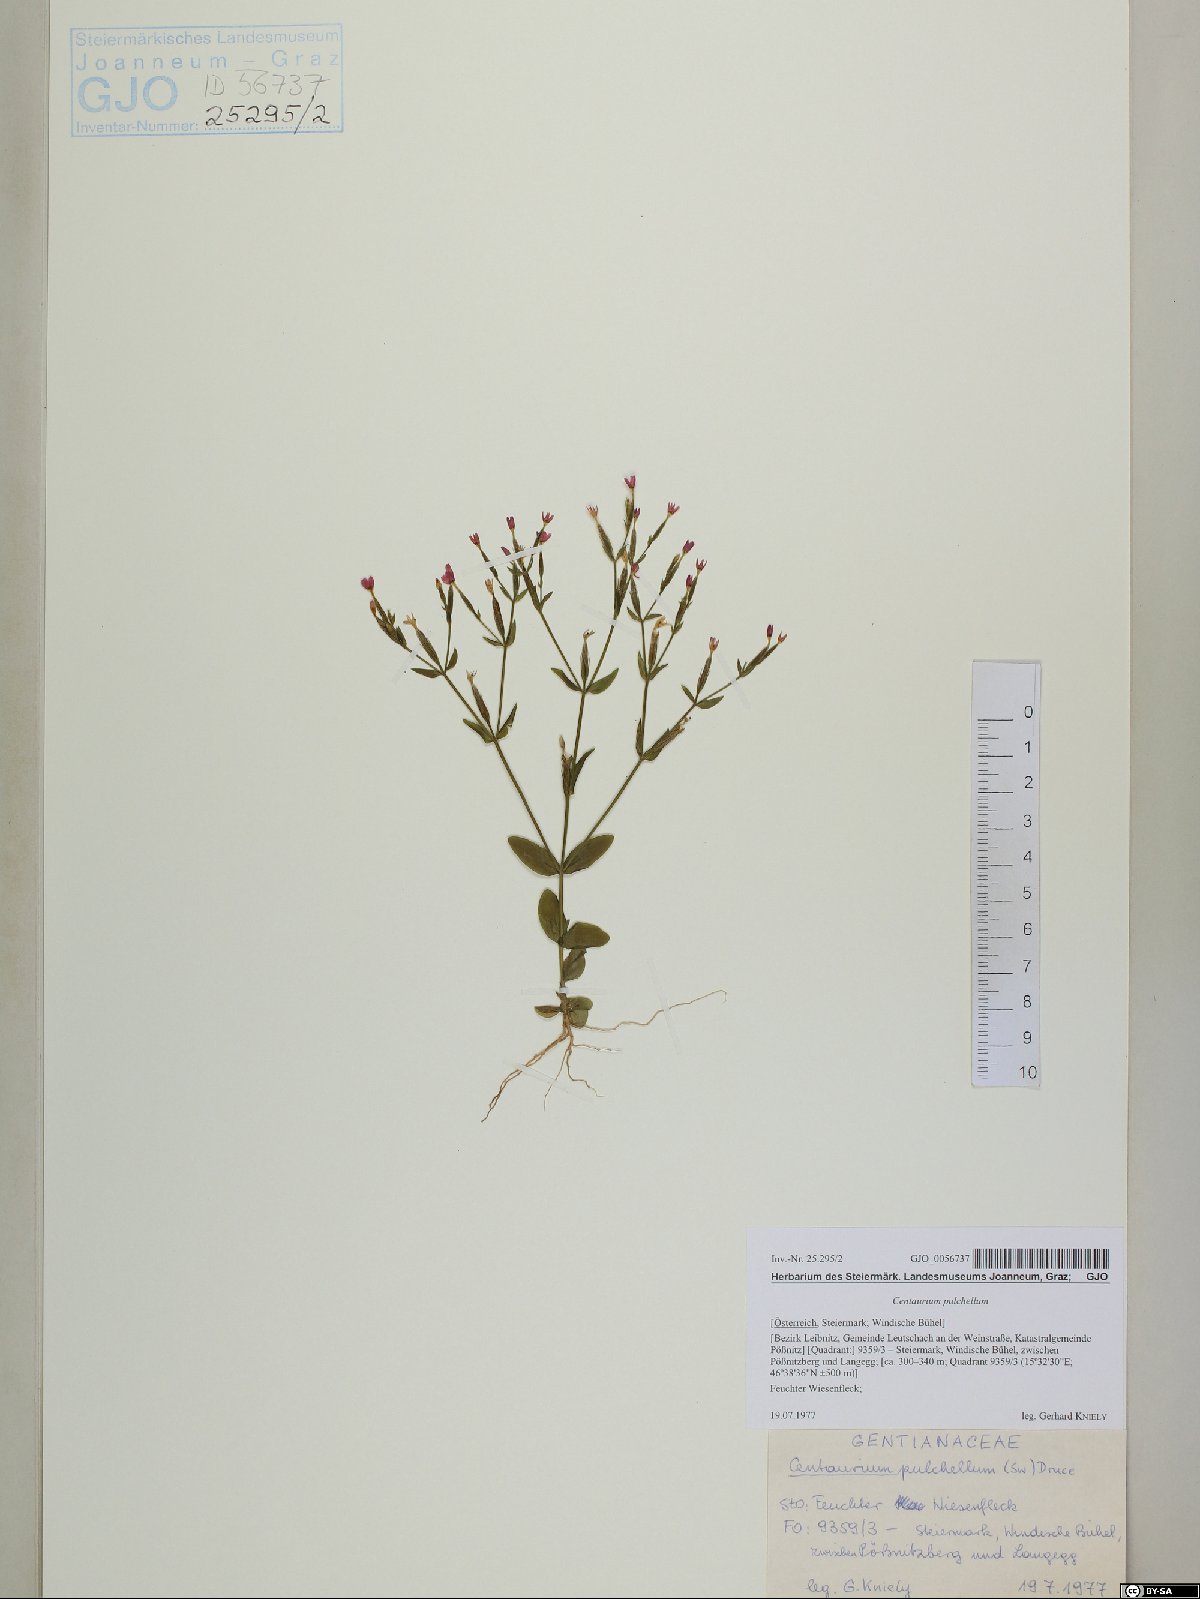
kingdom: Plantae
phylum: Tracheophyta
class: Magnoliopsida
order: Gentianales
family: Gentianaceae
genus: Centaurium
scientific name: Centaurium pulchellum
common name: Lesser centaury
